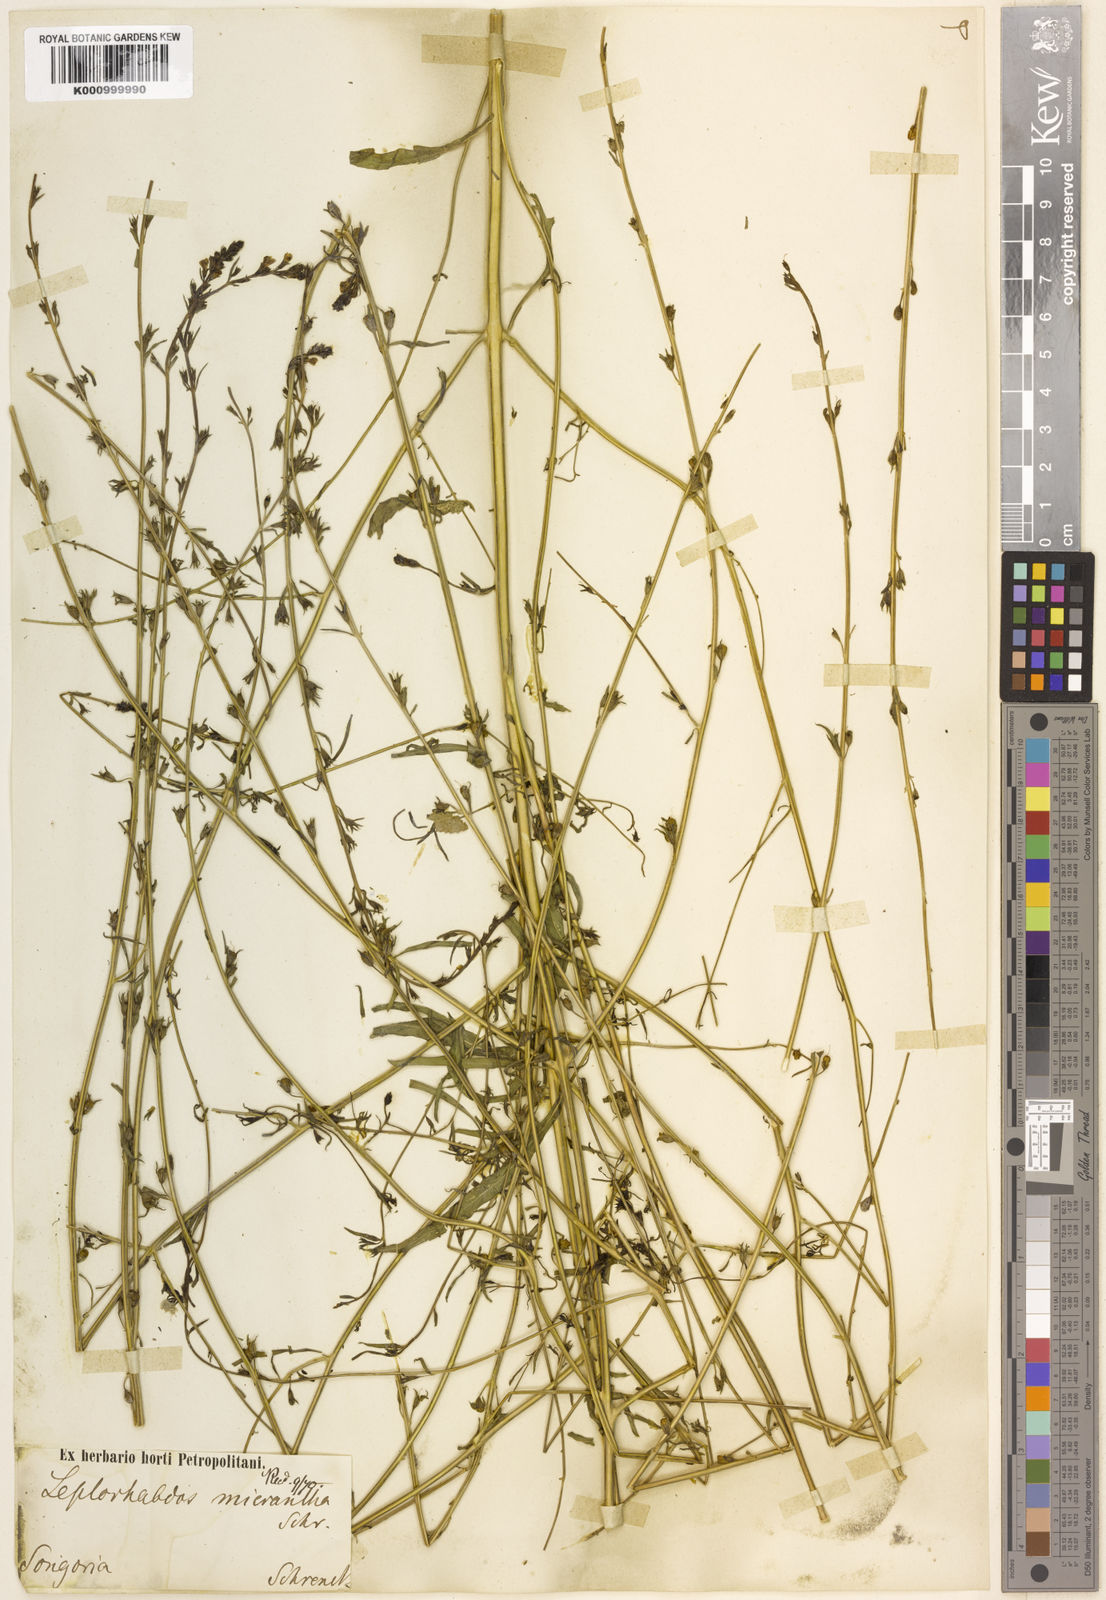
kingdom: Plantae
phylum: Tracheophyta
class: Magnoliopsida
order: Lamiales
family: Orobanchaceae
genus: Leptorhabdos
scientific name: Leptorhabdos parviflora
